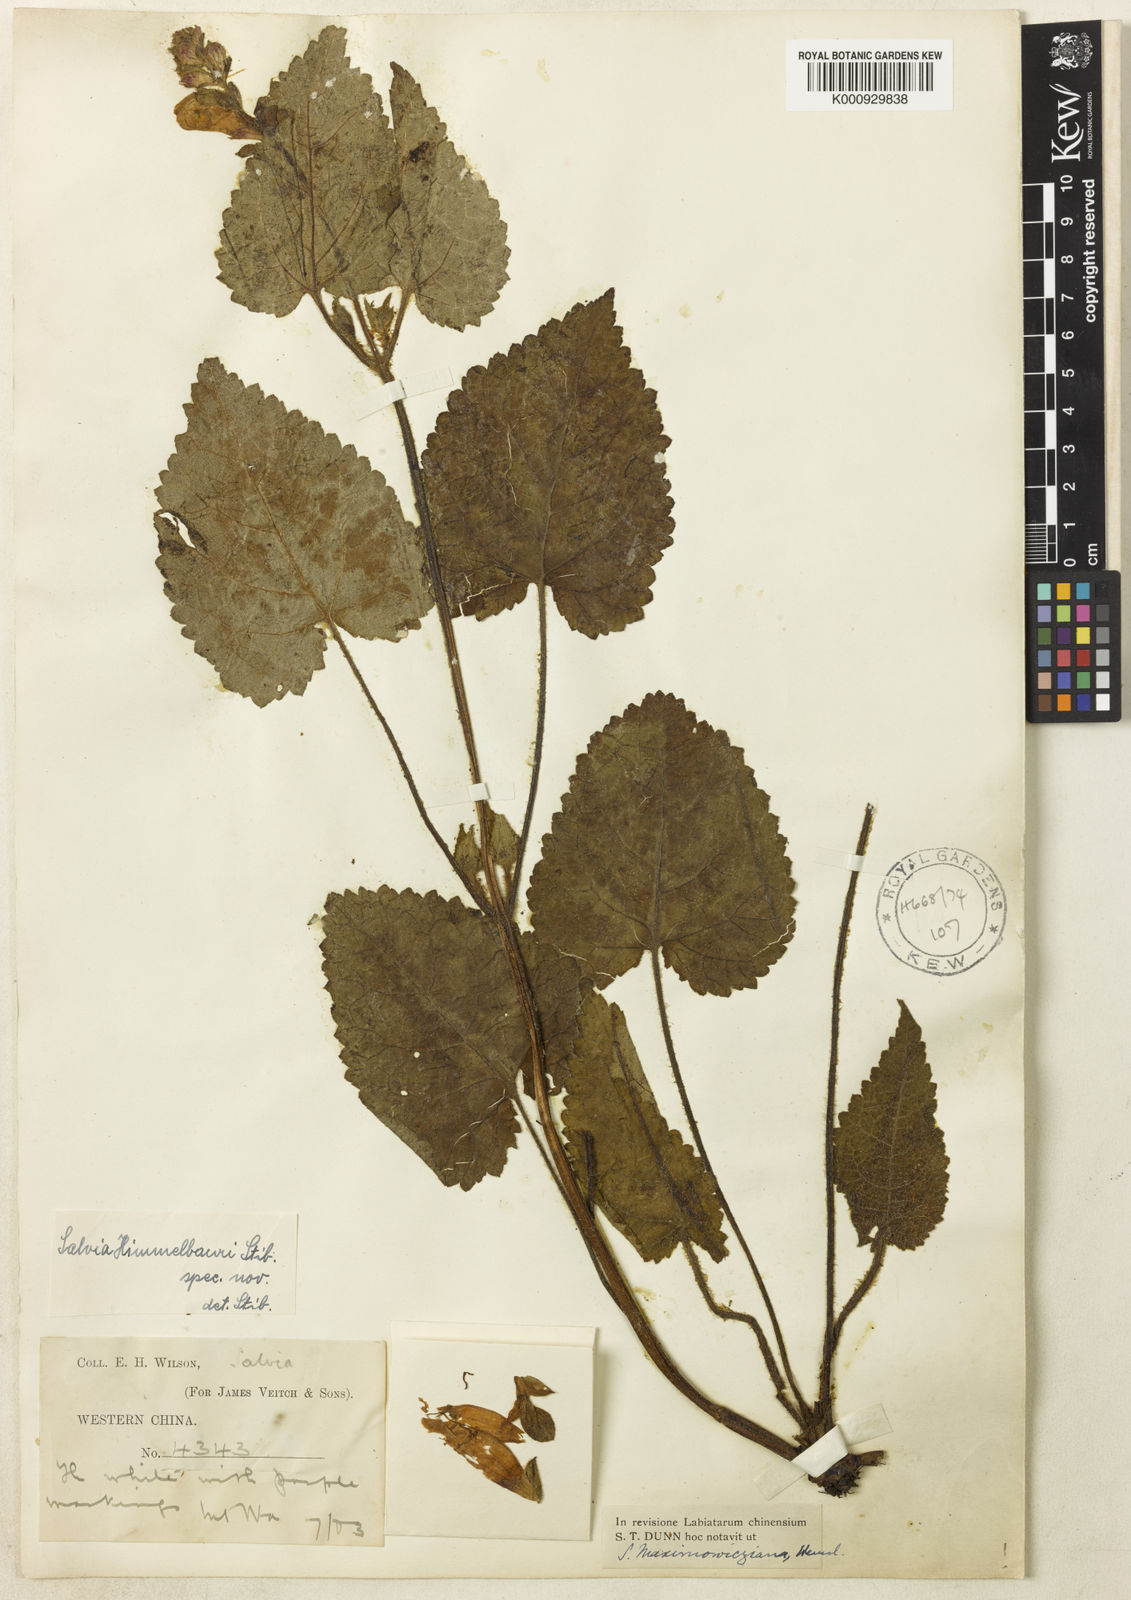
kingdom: Plantae
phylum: Tracheophyta
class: Magnoliopsida
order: Lamiales
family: Lamiaceae
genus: Salvia
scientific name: Salvia
